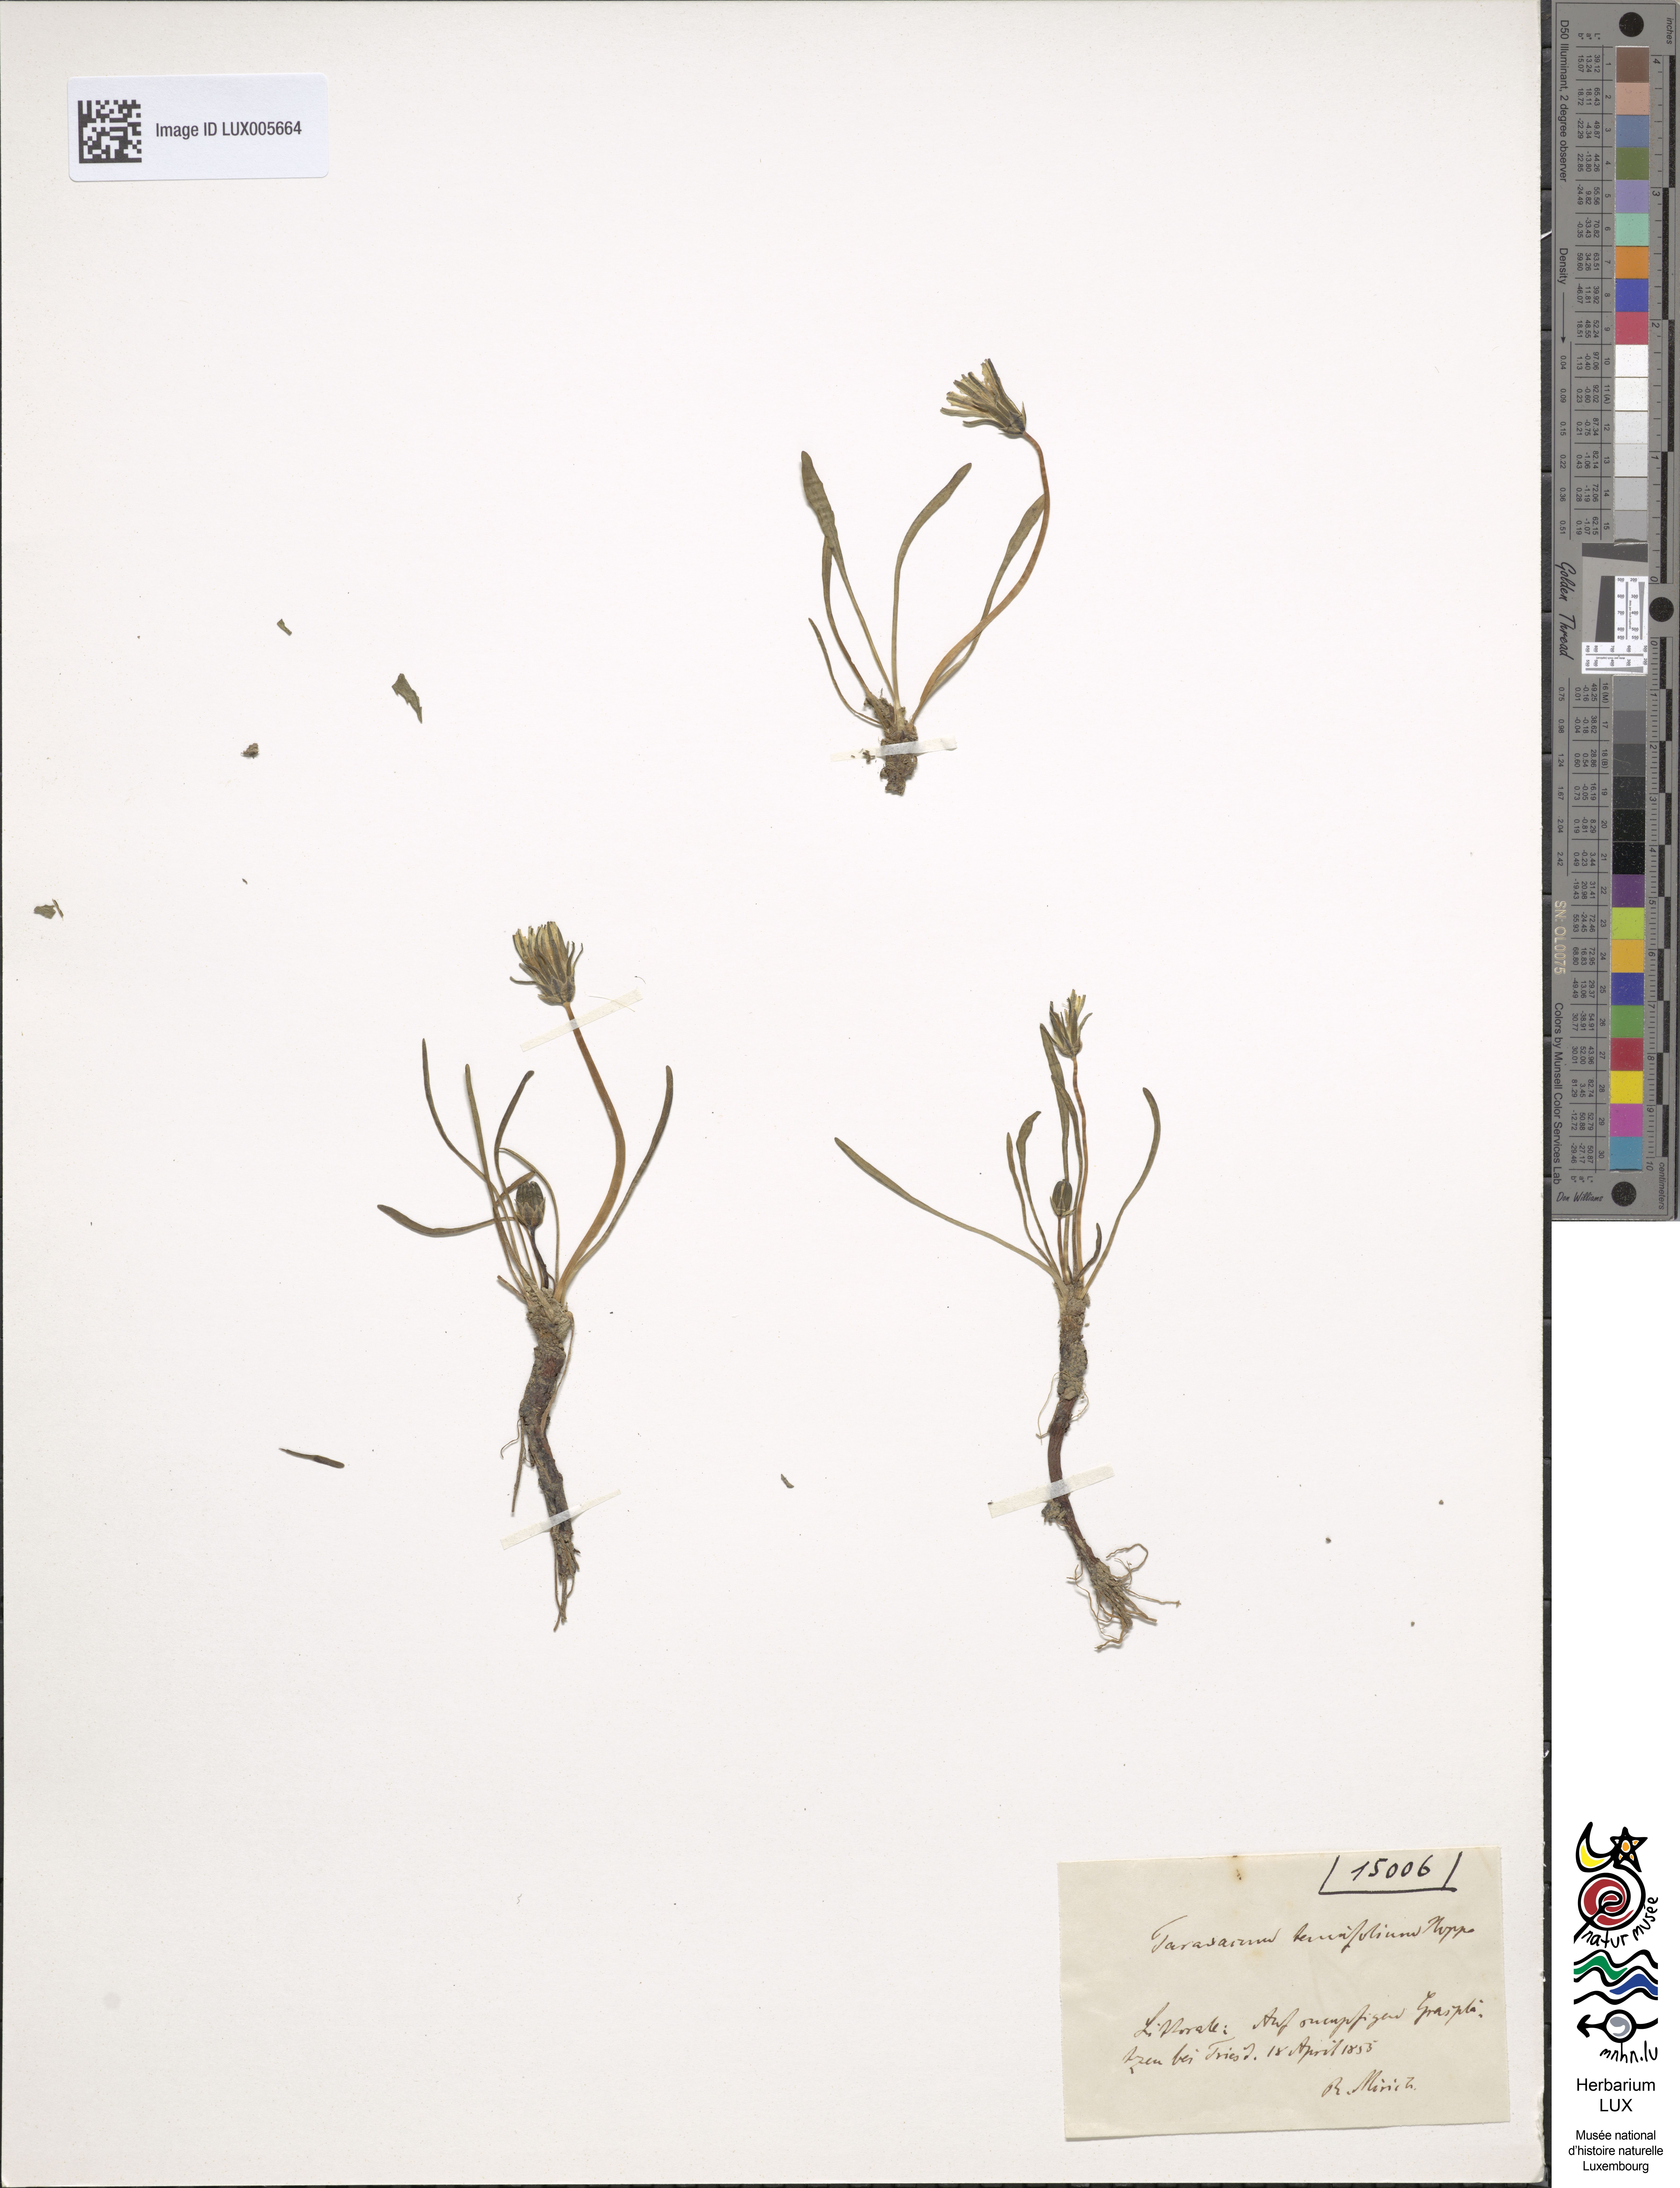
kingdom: Plantae
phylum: Tracheophyta
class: Magnoliopsida
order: Asterales
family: Asteraceae
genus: Taraxacum
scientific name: Taraxacum tenuifolium
